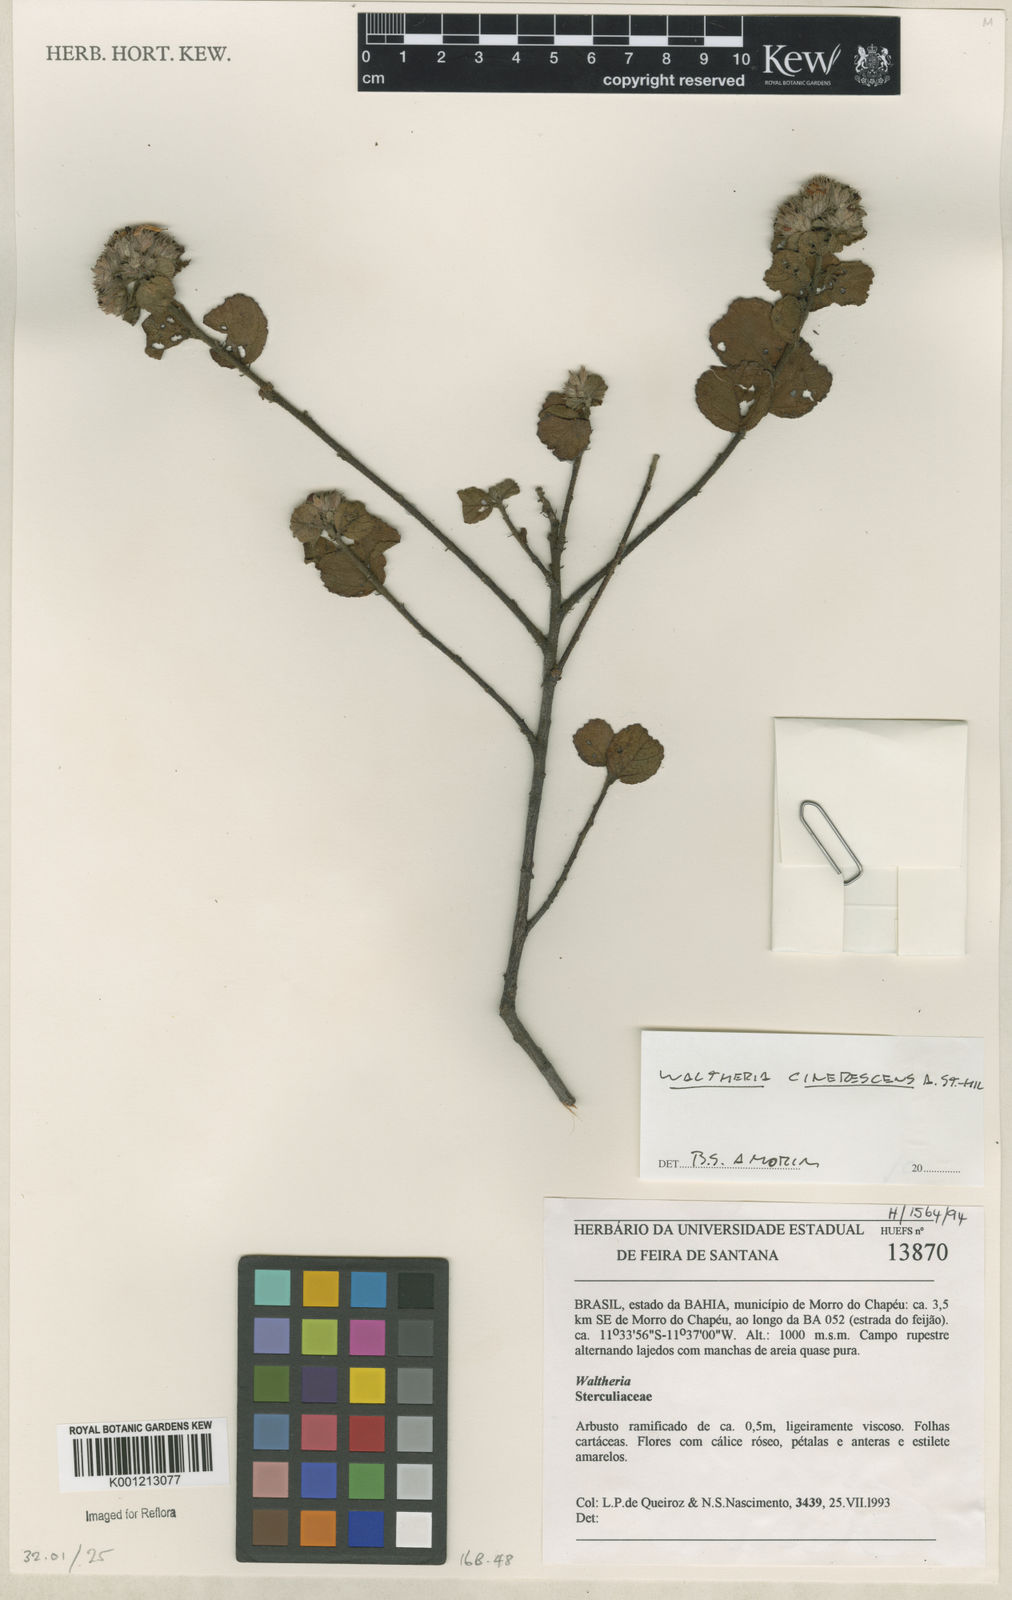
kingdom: Plantae
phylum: Tracheophyta
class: Magnoliopsida
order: Malvales
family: Malvaceae
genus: Waltheria
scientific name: Waltheria cinerescens
